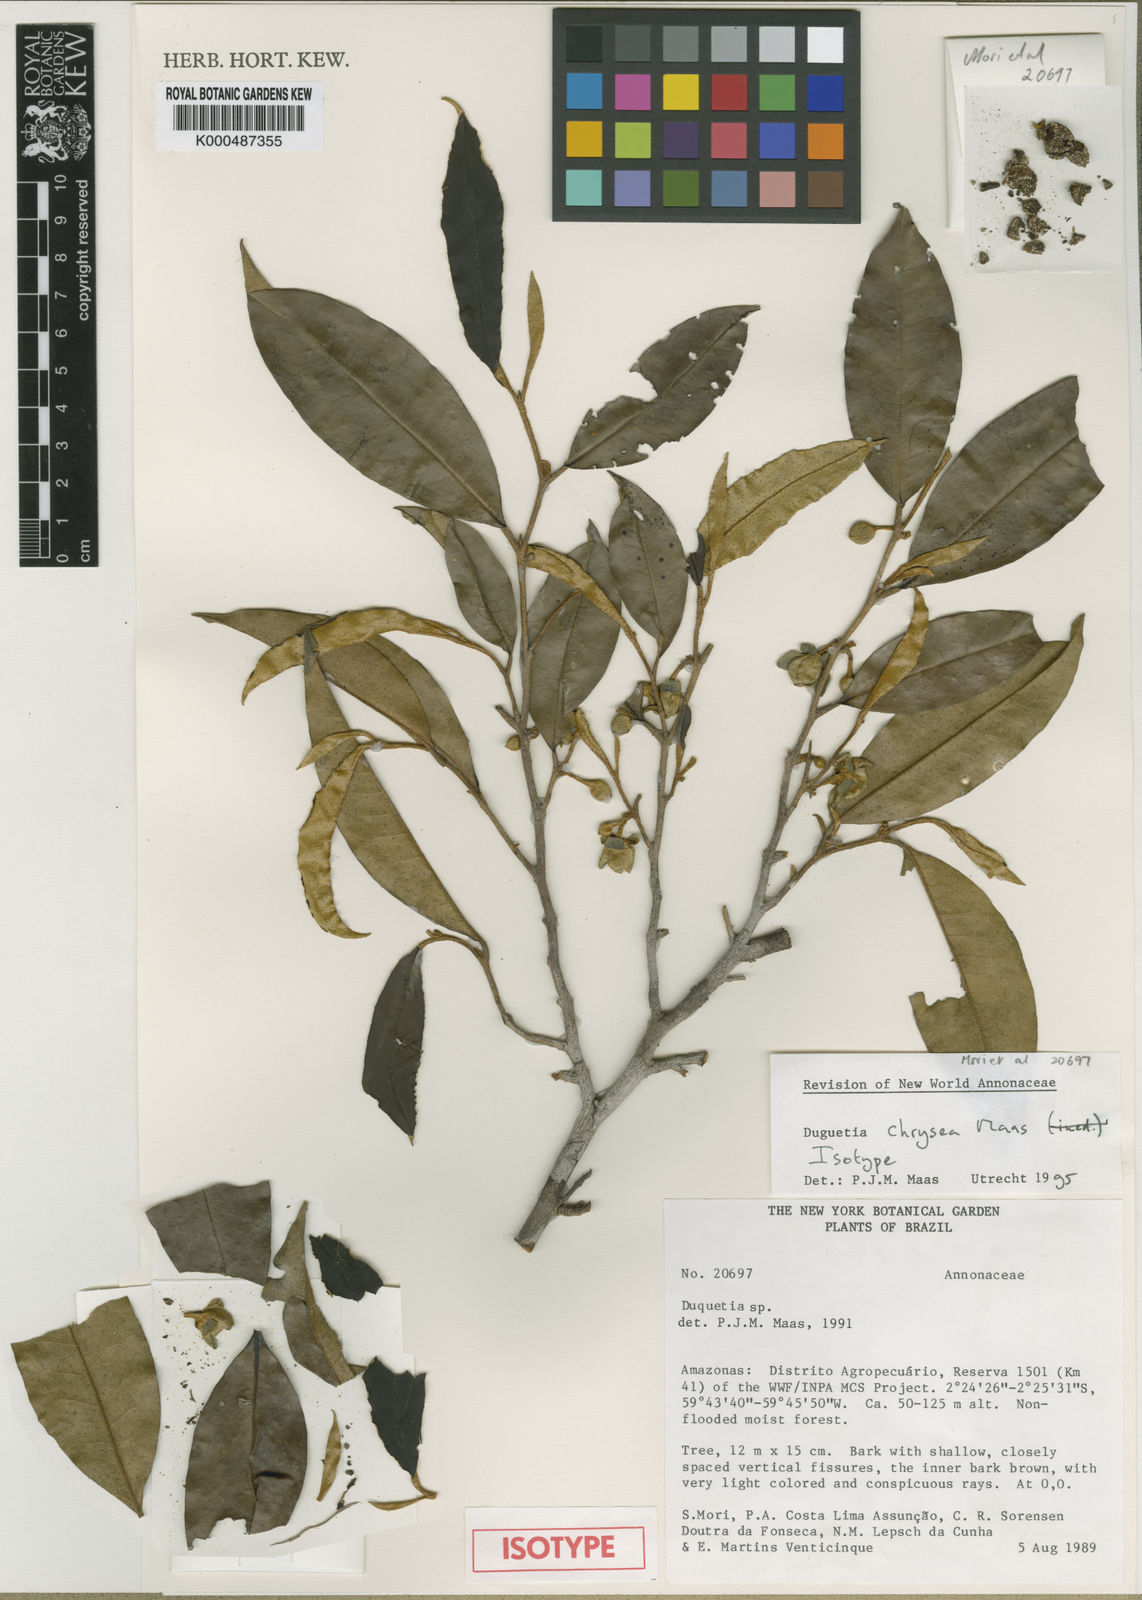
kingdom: Plantae
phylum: Tracheophyta
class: Magnoliopsida
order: Magnoliales
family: Annonaceae
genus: Duguetia
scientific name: Duguetia chrysea
